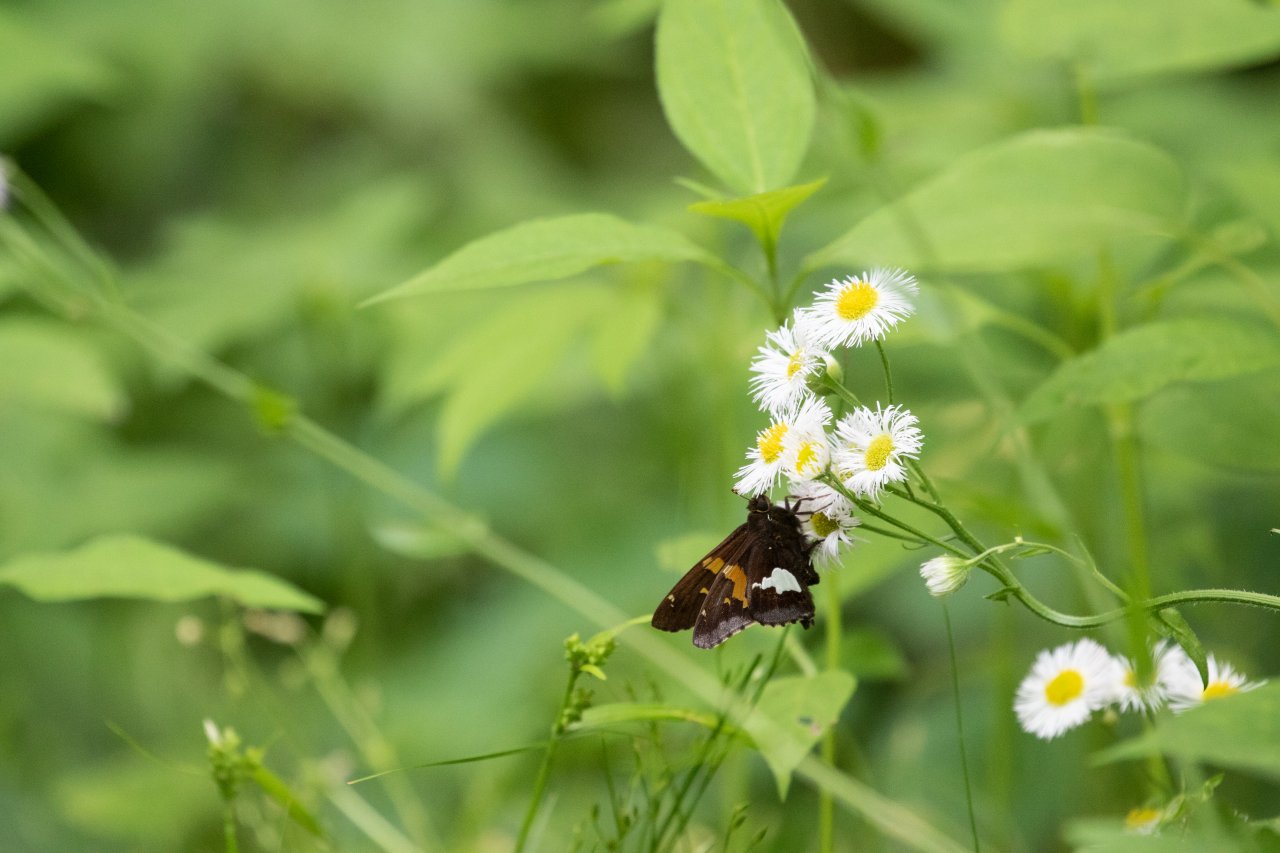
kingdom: Animalia
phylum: Arthropoda
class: Insecta
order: Lepidoptera
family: Hesperiidae
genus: Epargyreus
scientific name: Epargyreus clarus
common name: Silver-spotted Skipper
